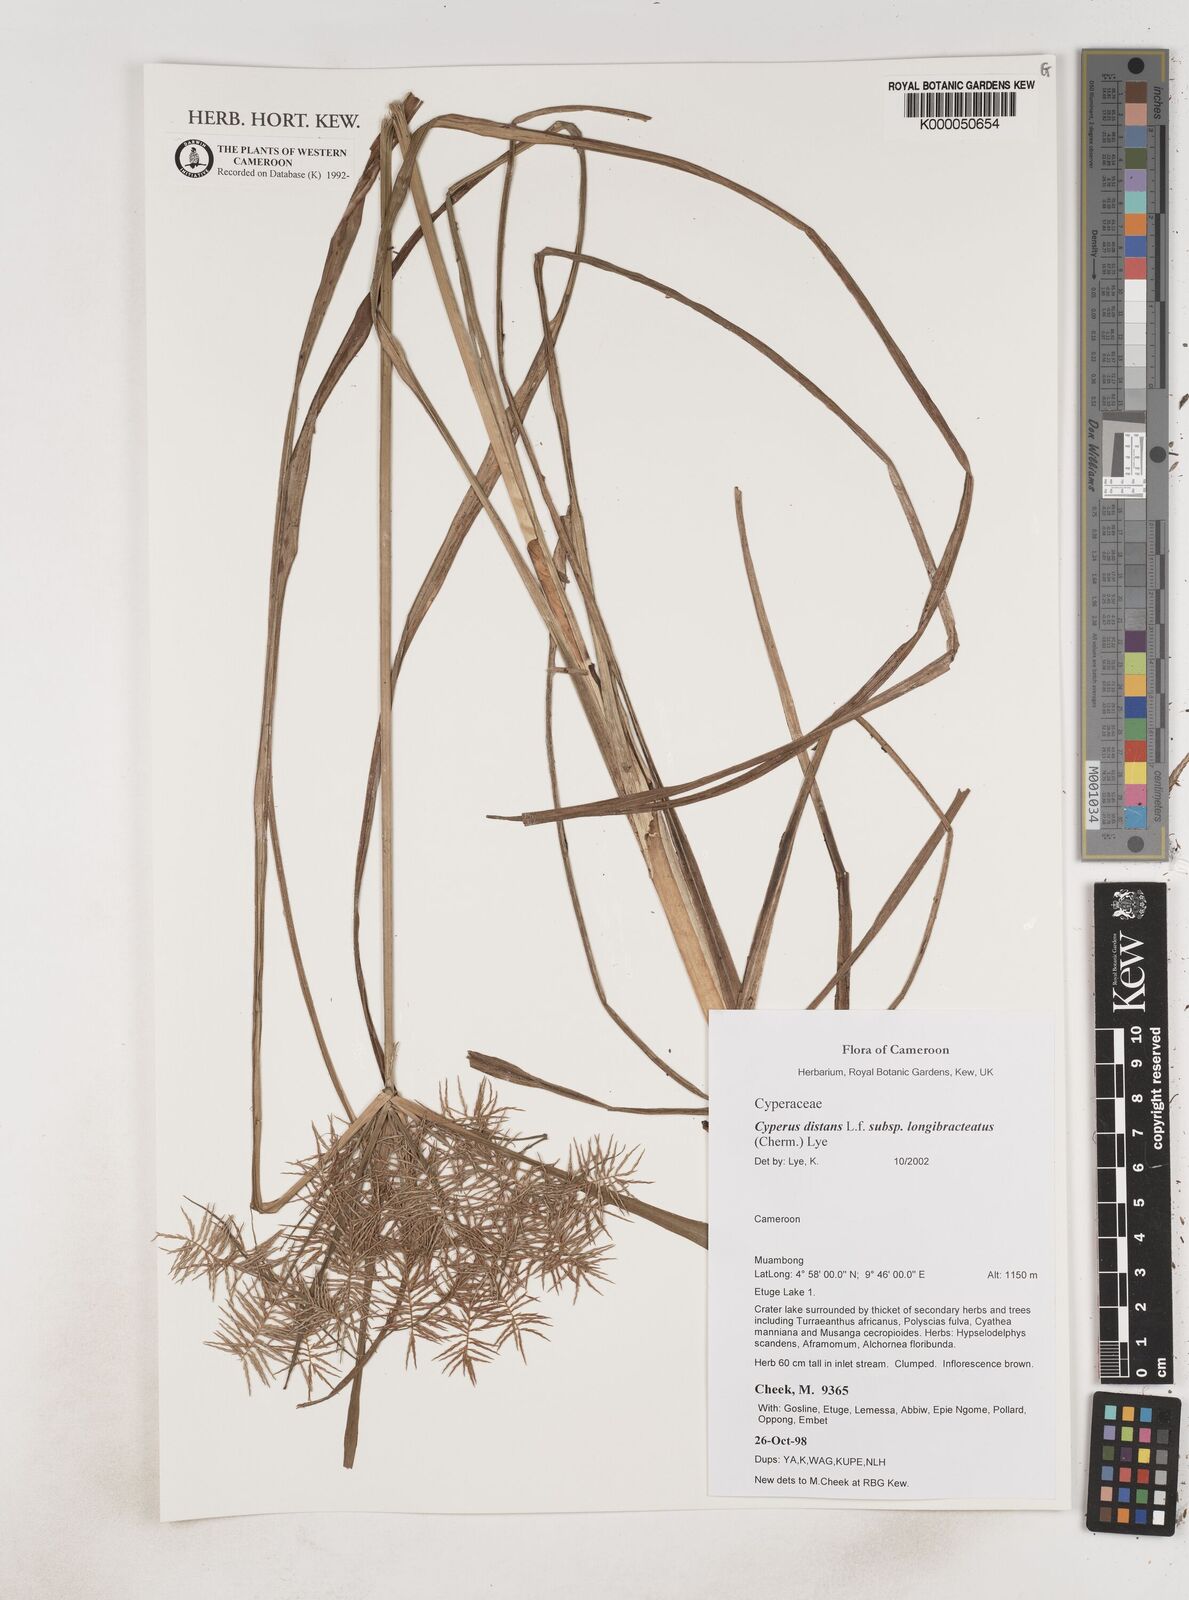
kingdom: Plantae
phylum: Tracheophyta
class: Liliopsida
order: Poales
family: Cyperaceae
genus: Cyperus
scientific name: Cyperus distans
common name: Slender cyperus
